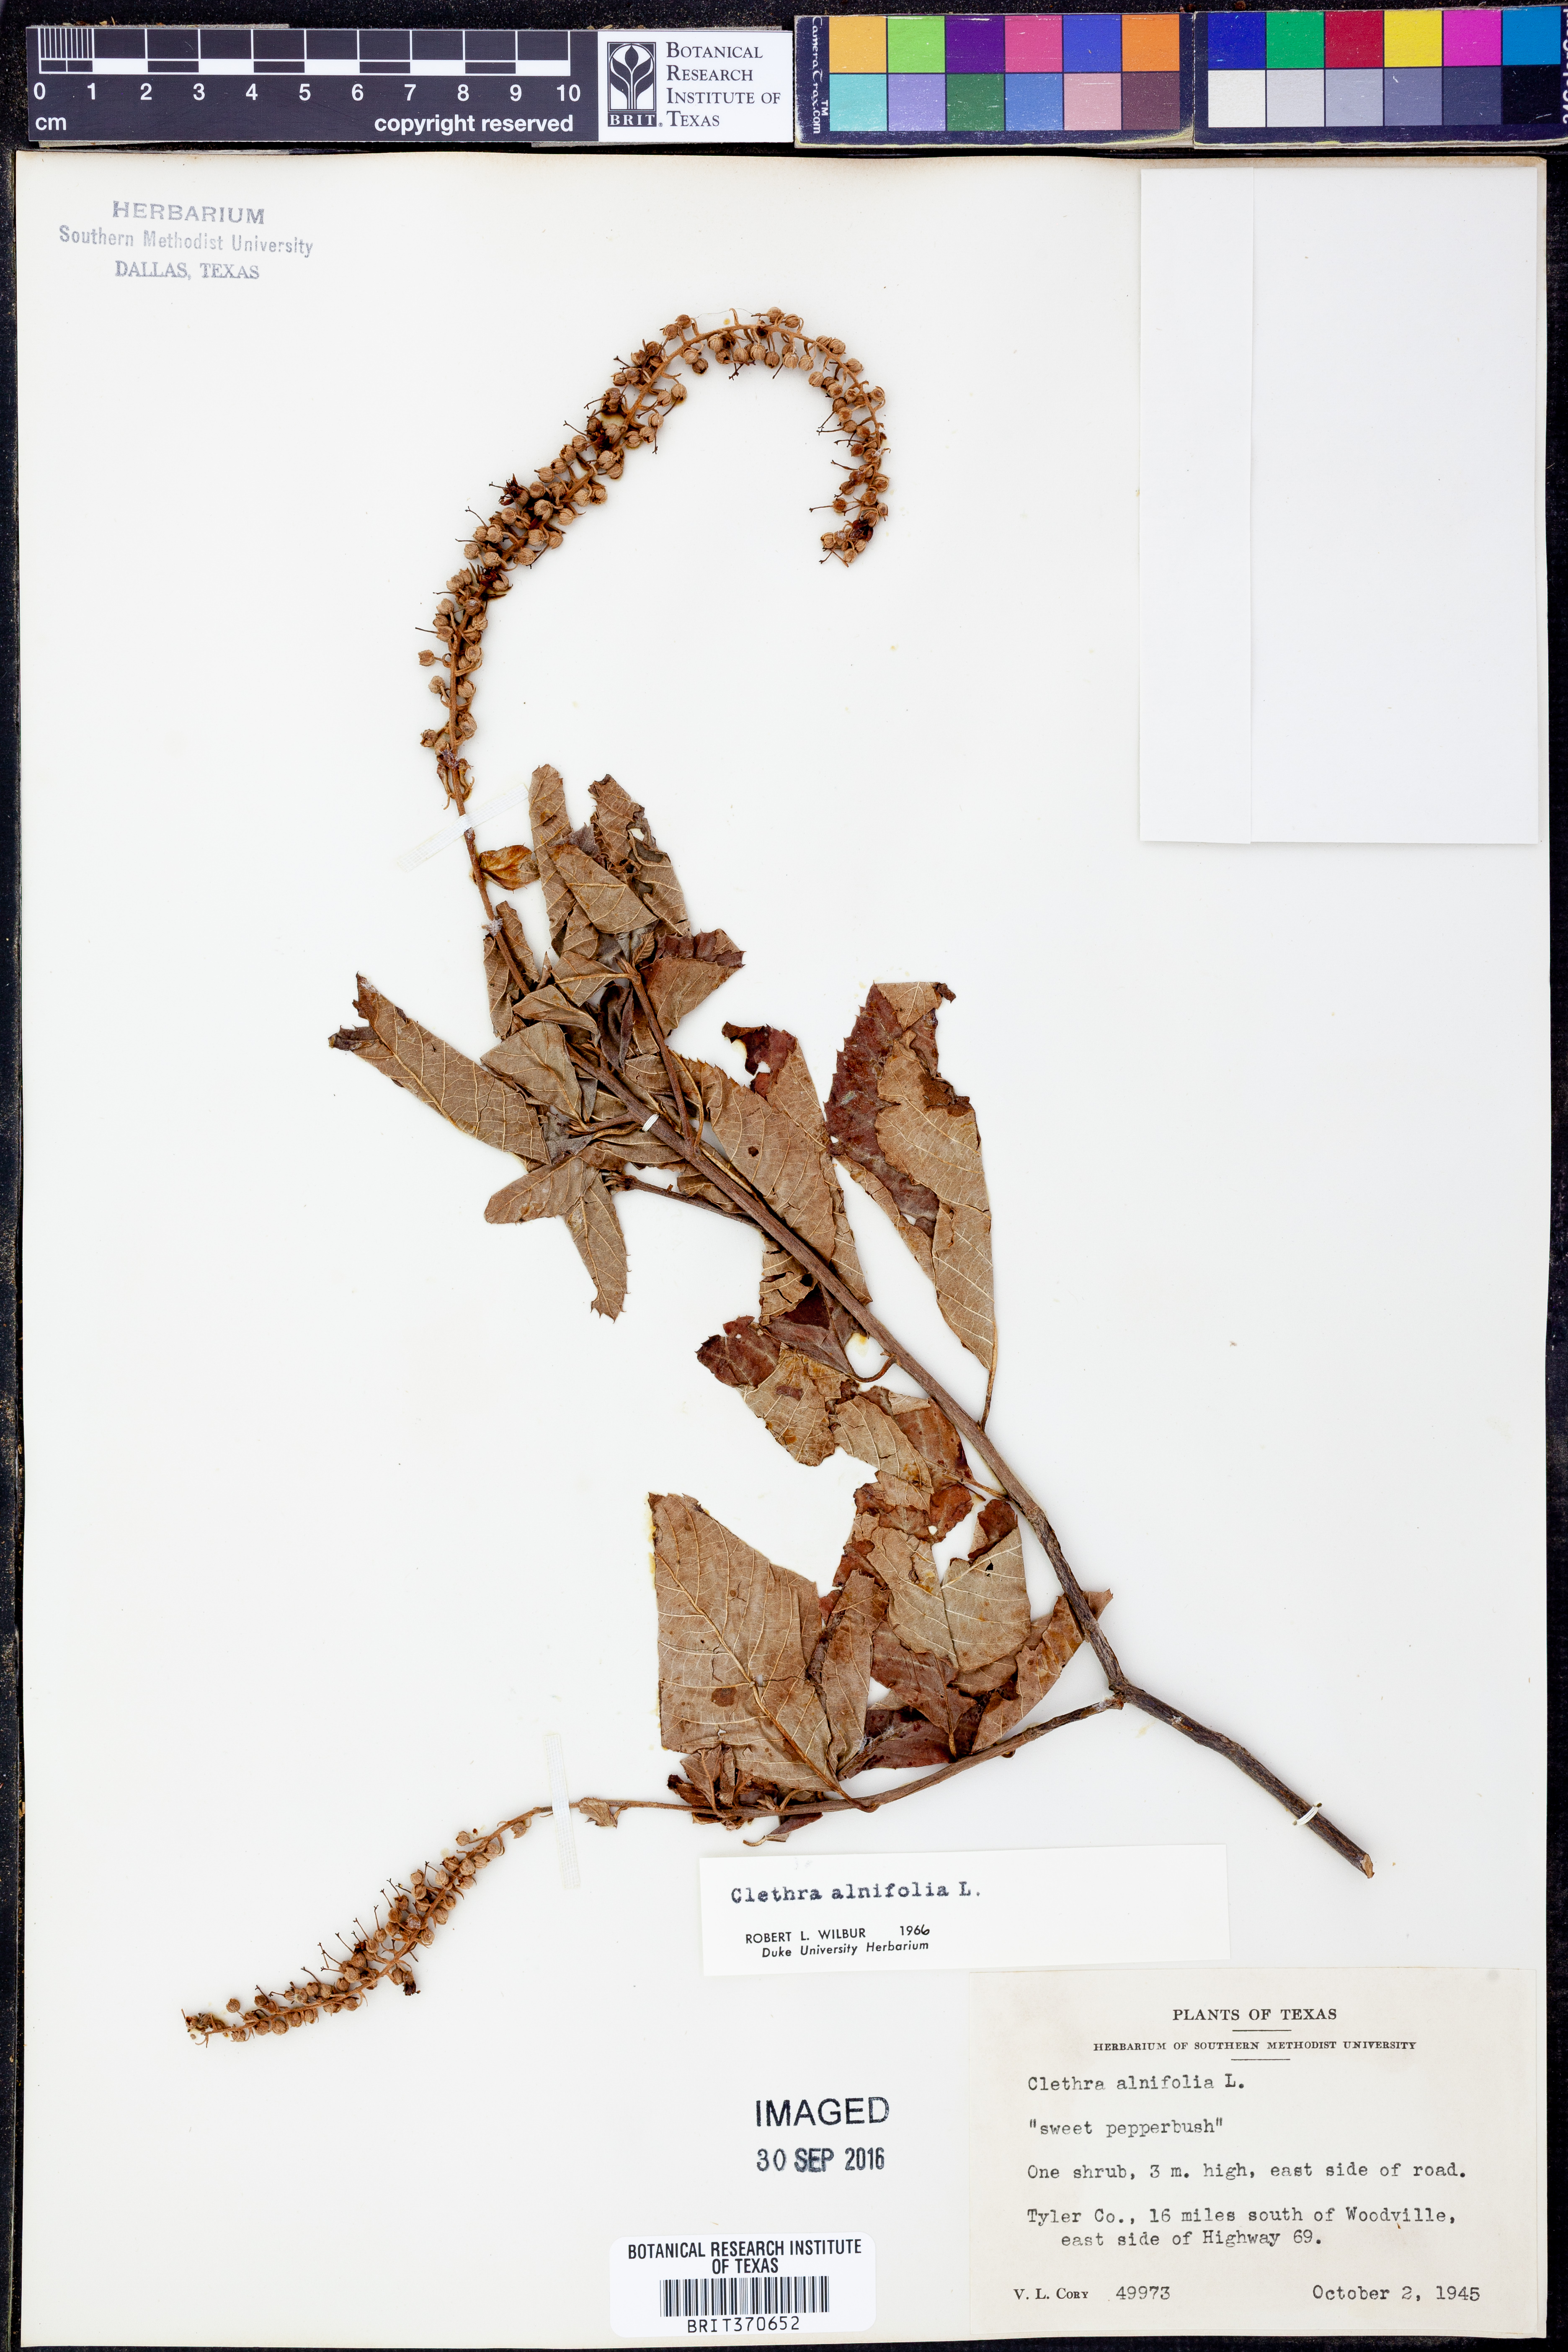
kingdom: Plantae
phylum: Tracheophyta
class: Magnoliopsida
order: Ericales
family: Clethraceae
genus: Clethra
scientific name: Clethra alnifolia
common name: Sweet pepperbush
